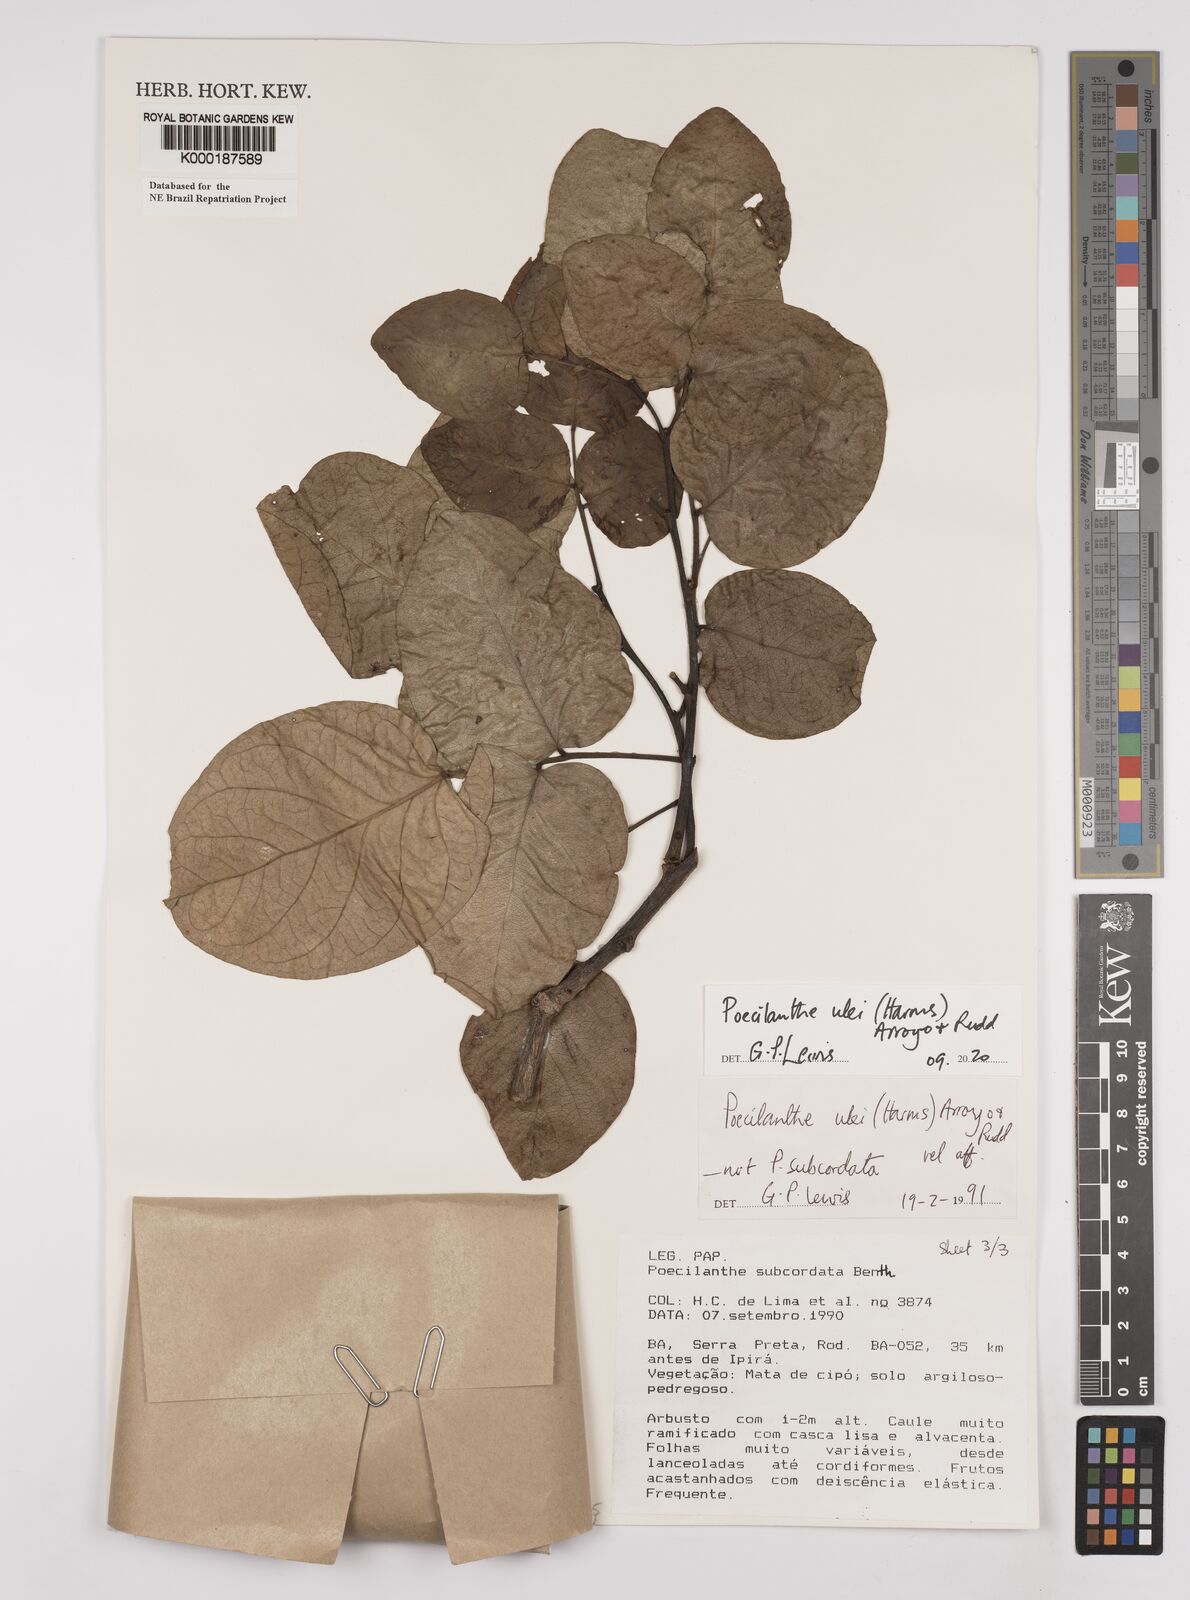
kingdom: Plantae
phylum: Tracheophyta
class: Magnoliopsida
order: Fabales
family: Fabaceae
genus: Poecilanthe
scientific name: Poecilanthe ulei
